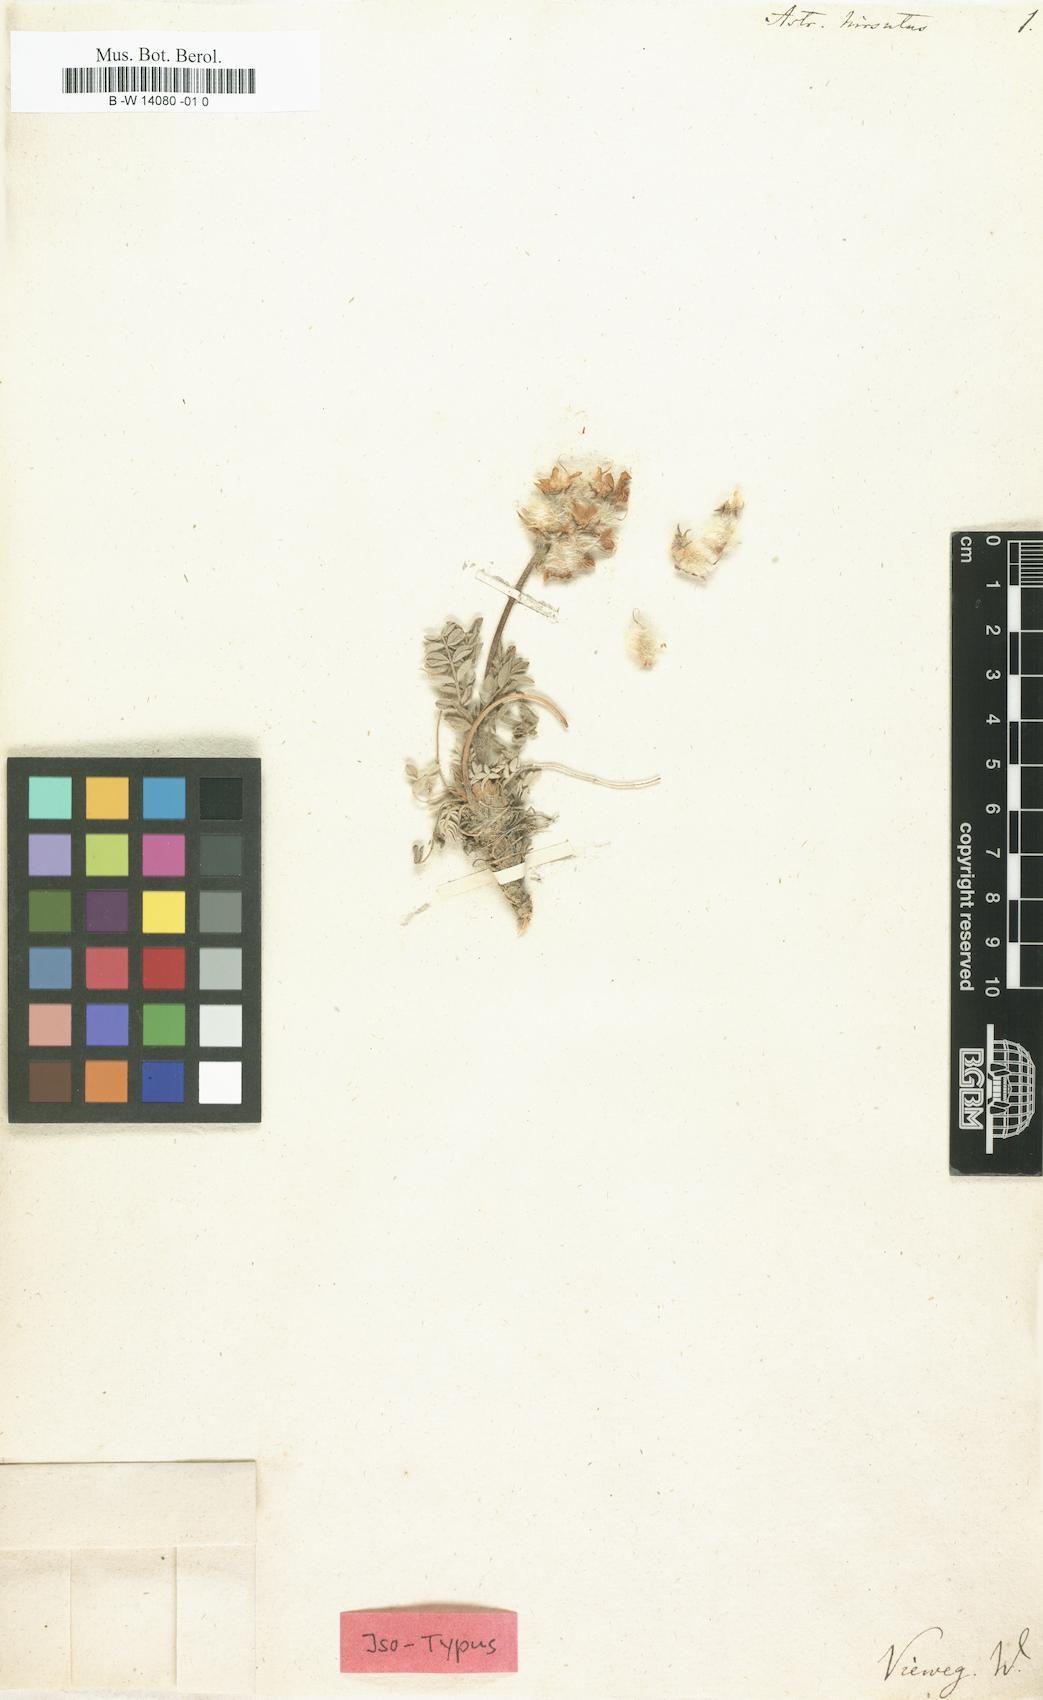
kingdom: Plantae
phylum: Tracheophyta
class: Magnoliopsida
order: Fabales
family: Fabaceae
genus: Astragalus
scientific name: Astragalus hirsutus
